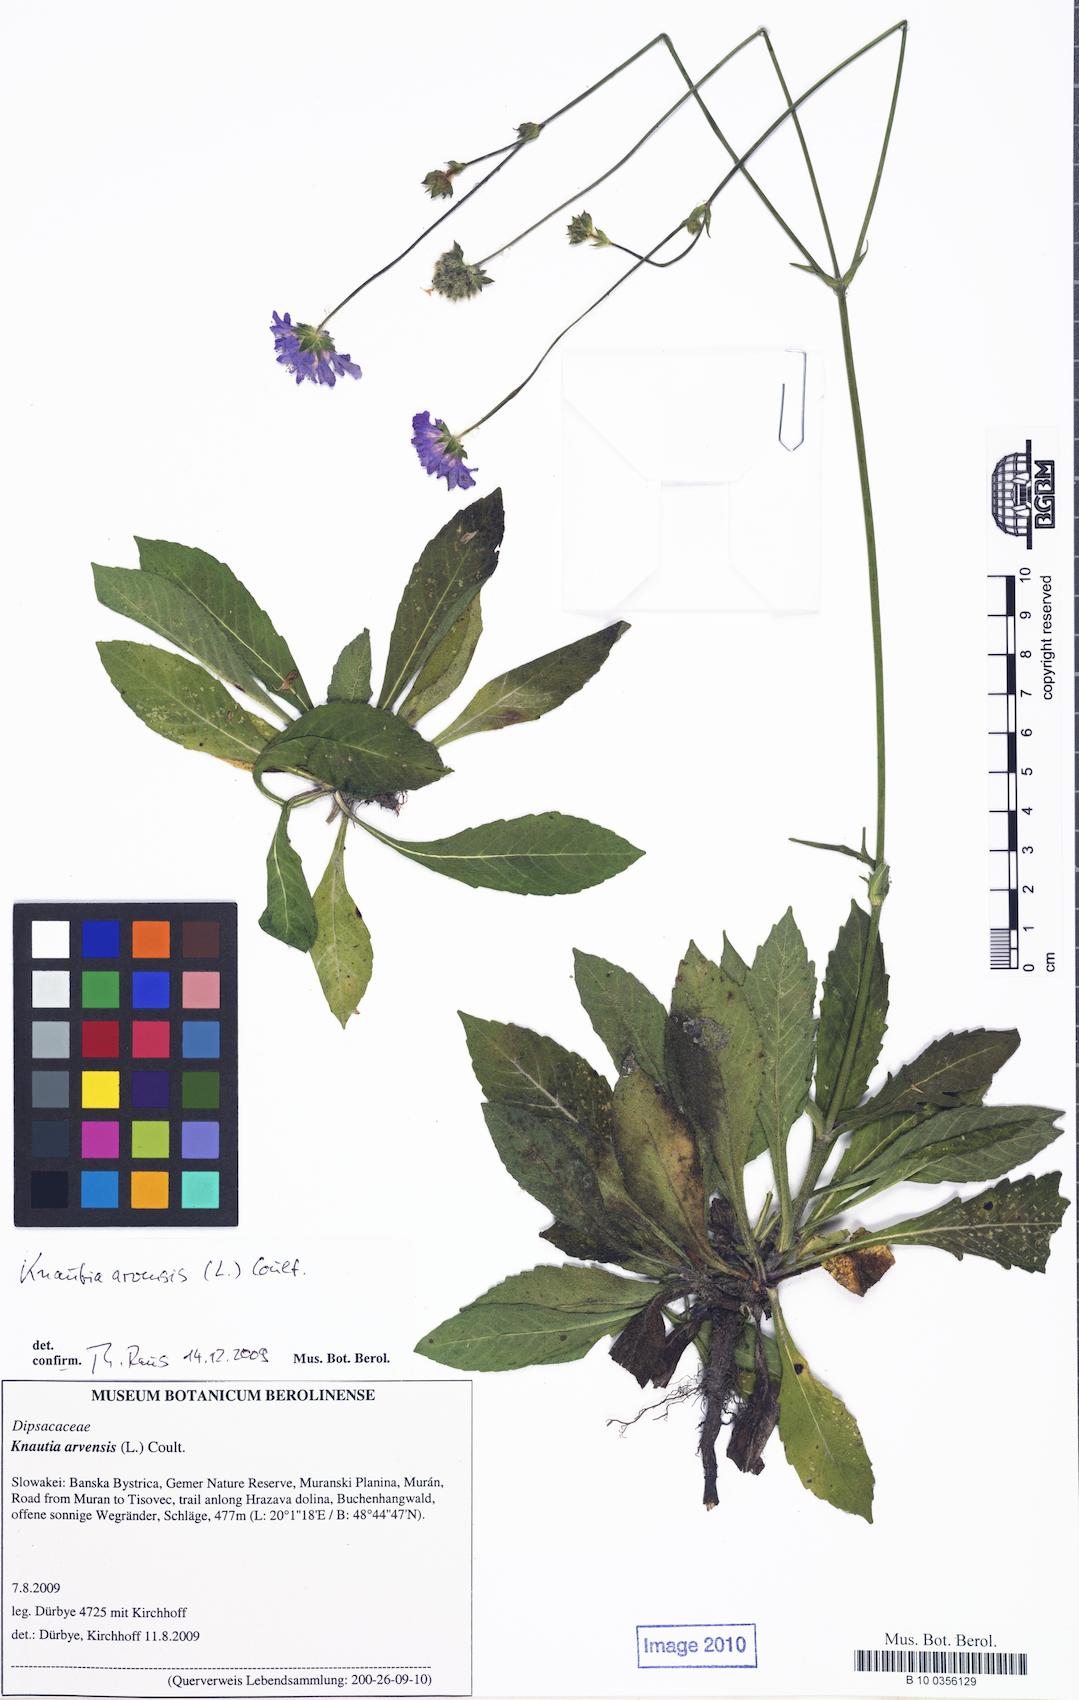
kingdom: Plantae
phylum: Tracheophyta
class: Magnoliopsida
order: Dipsacales
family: Caprifoliaceae
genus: Knautia
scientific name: Knautia arvensis
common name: Field scabiosa
